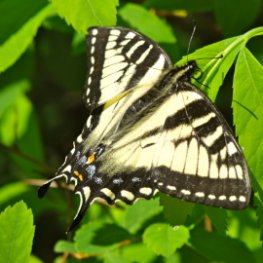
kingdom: Animalia
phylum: Arthropoda
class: Insecta
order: Lepidoptera
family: Papilionidae
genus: Pterourus
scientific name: Pterourus canadensis
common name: Canadian Tiger Swallowtail
